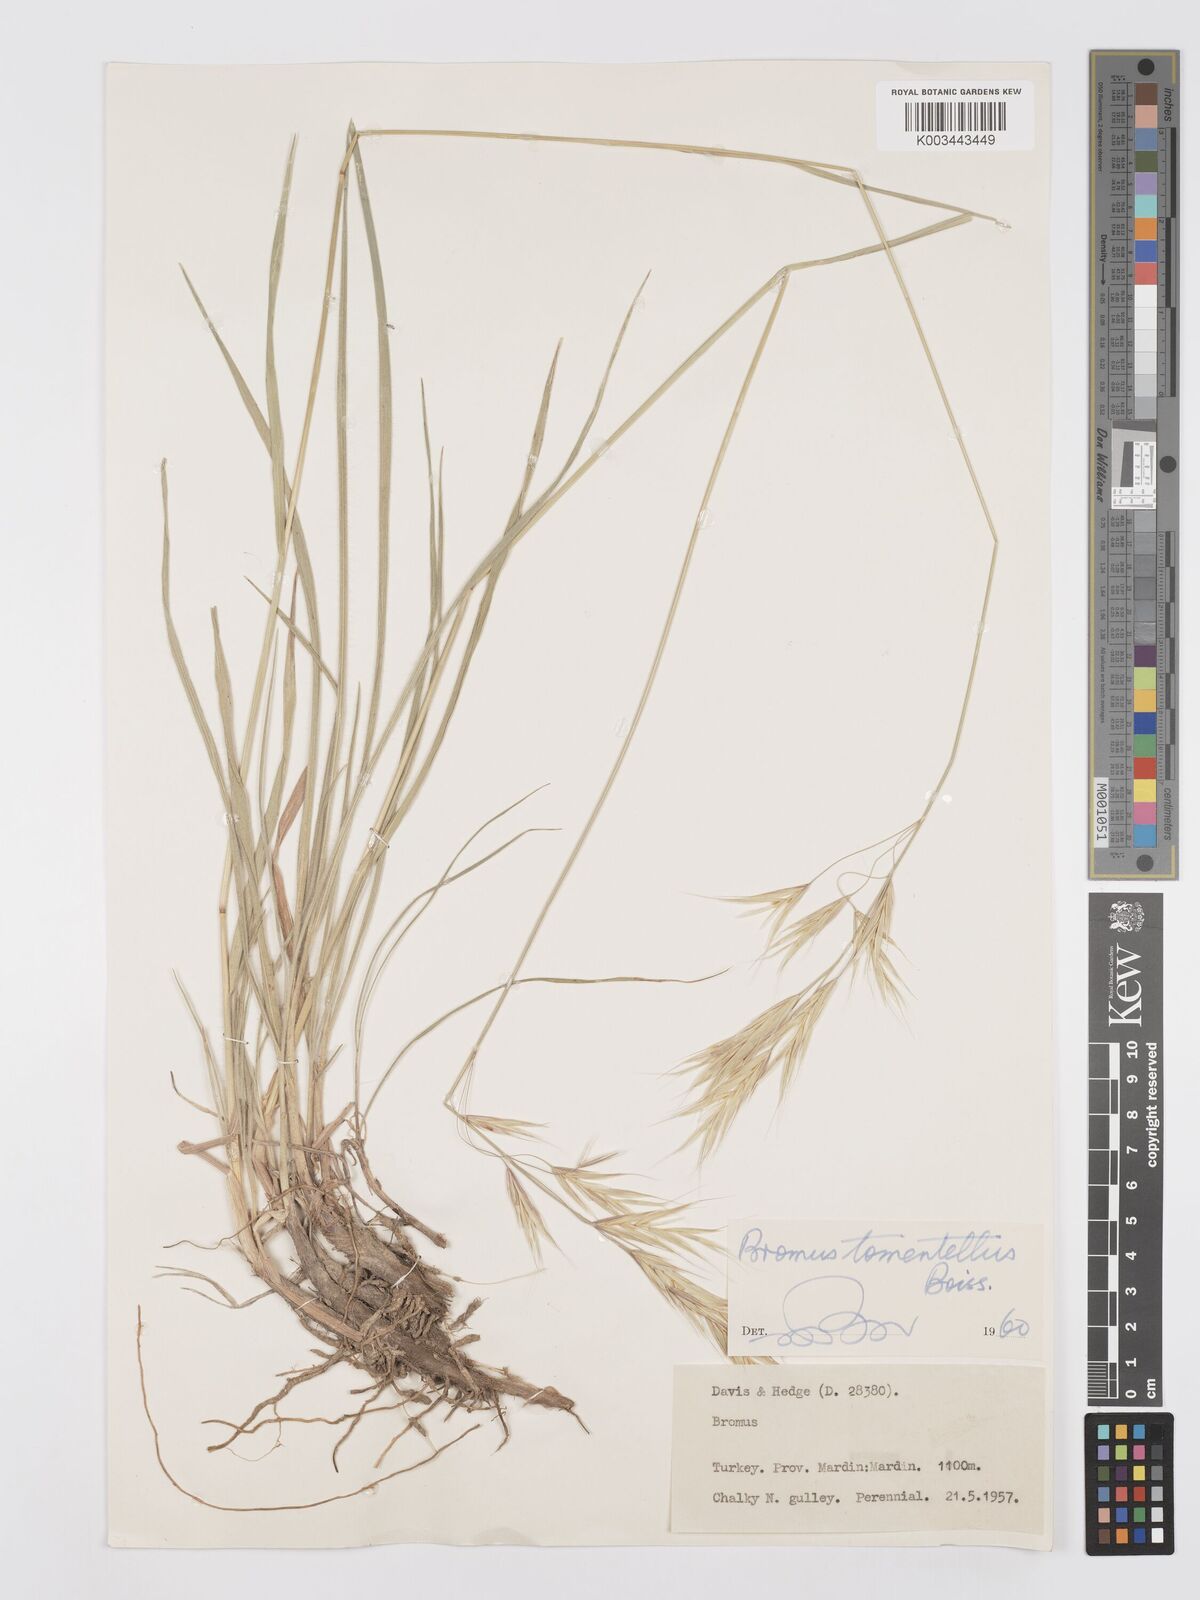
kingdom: Plantae
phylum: Tracheophyta
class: Liliopsida
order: Poales
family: Poaceae
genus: Bromus
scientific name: Bromus tomentellus
